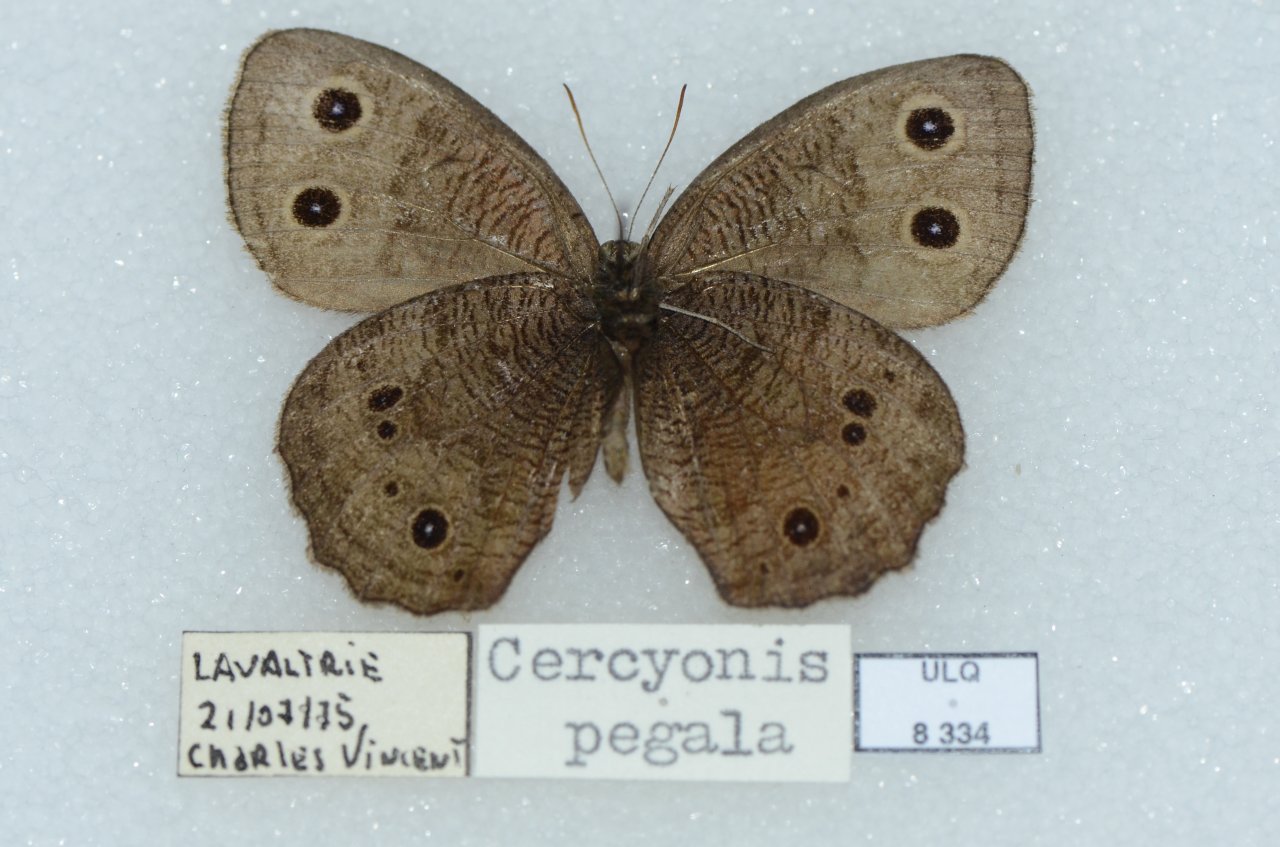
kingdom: Animalia
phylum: Arthropoda
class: Insecta
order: Lepidoptera
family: Nymphalidae
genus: Cercyonis
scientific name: Cercyonis pegala
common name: Common Wood-Nymph
